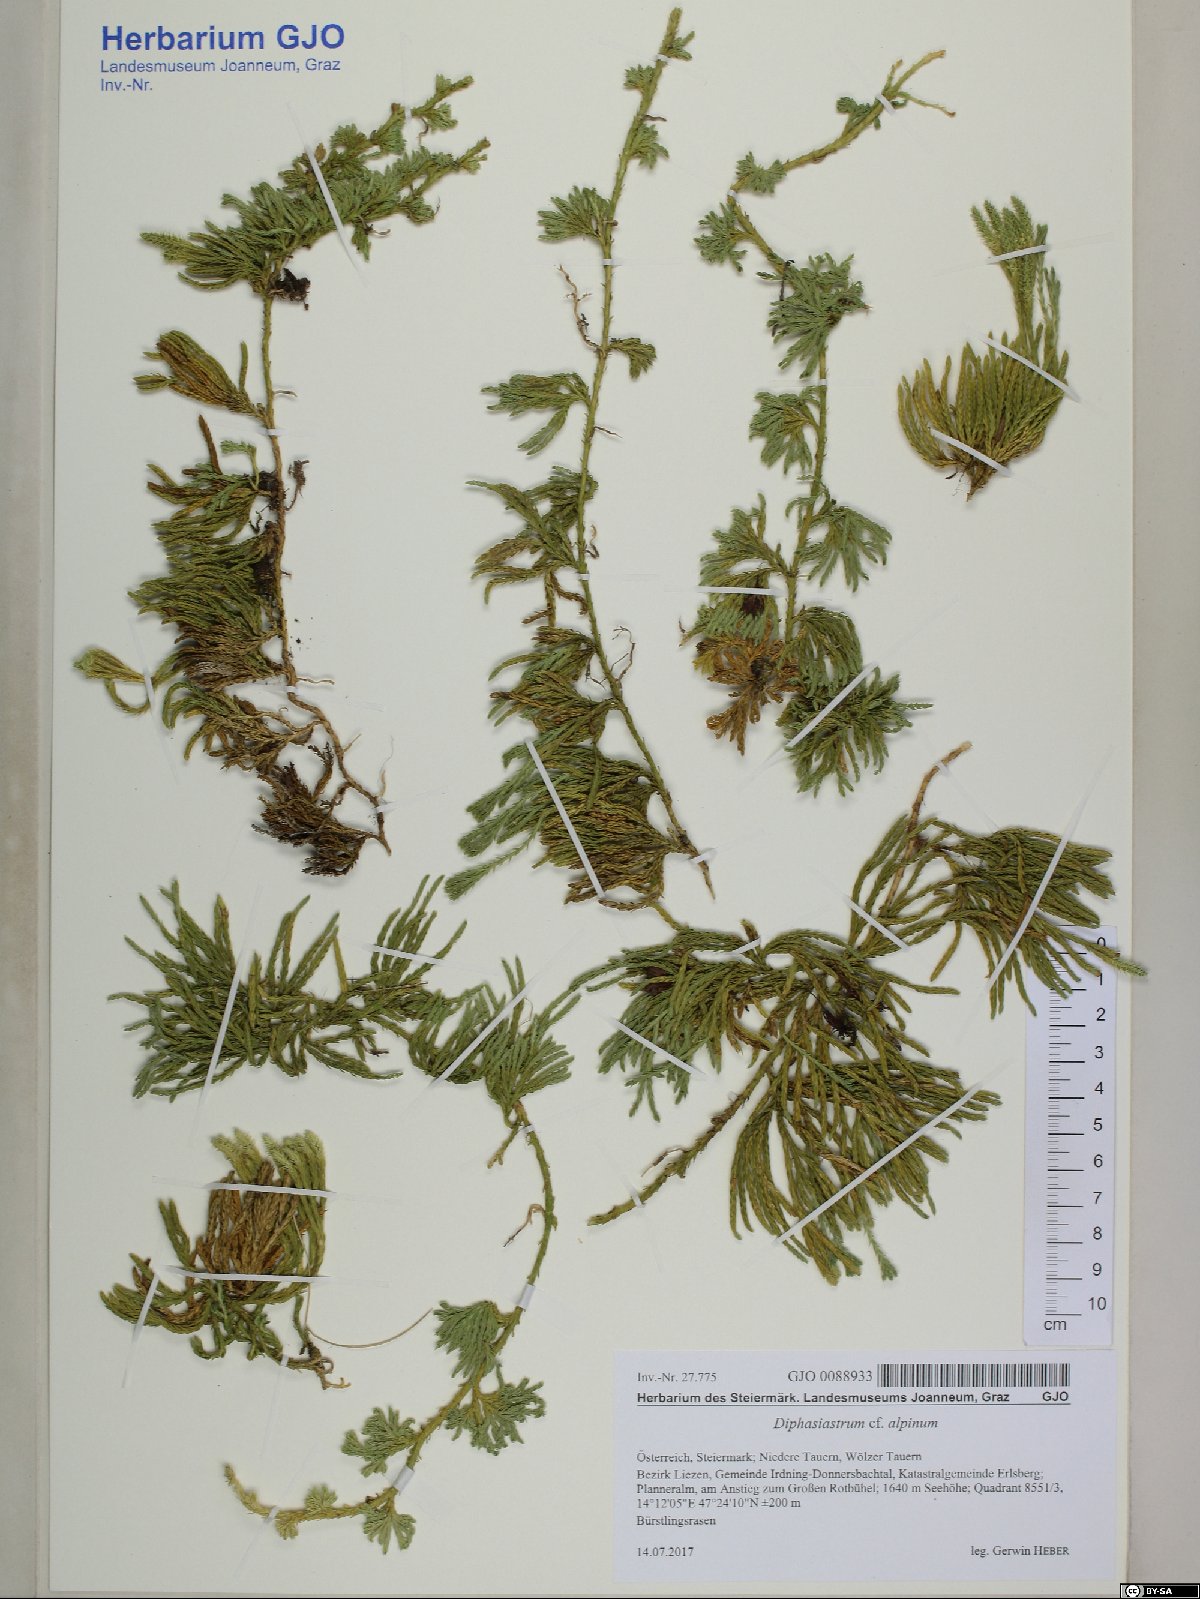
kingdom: Plantae
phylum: Tracheophyta
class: Lycopodiopsida
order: Lycopodiales
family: Lycopodiaceae
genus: Diphasiastrum
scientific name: Diphasiastrum alpinum
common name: Alpine clubmoss
